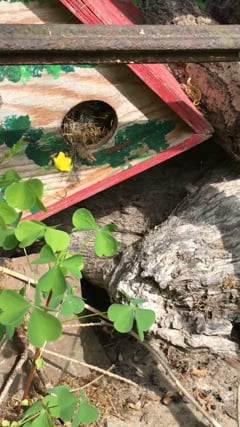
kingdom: Animalia
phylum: Arthropoda
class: Insecta
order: Hymenoptera
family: Apidae
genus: Bombus
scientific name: Bombus terrestris
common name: Buff-tailed bumblebee
